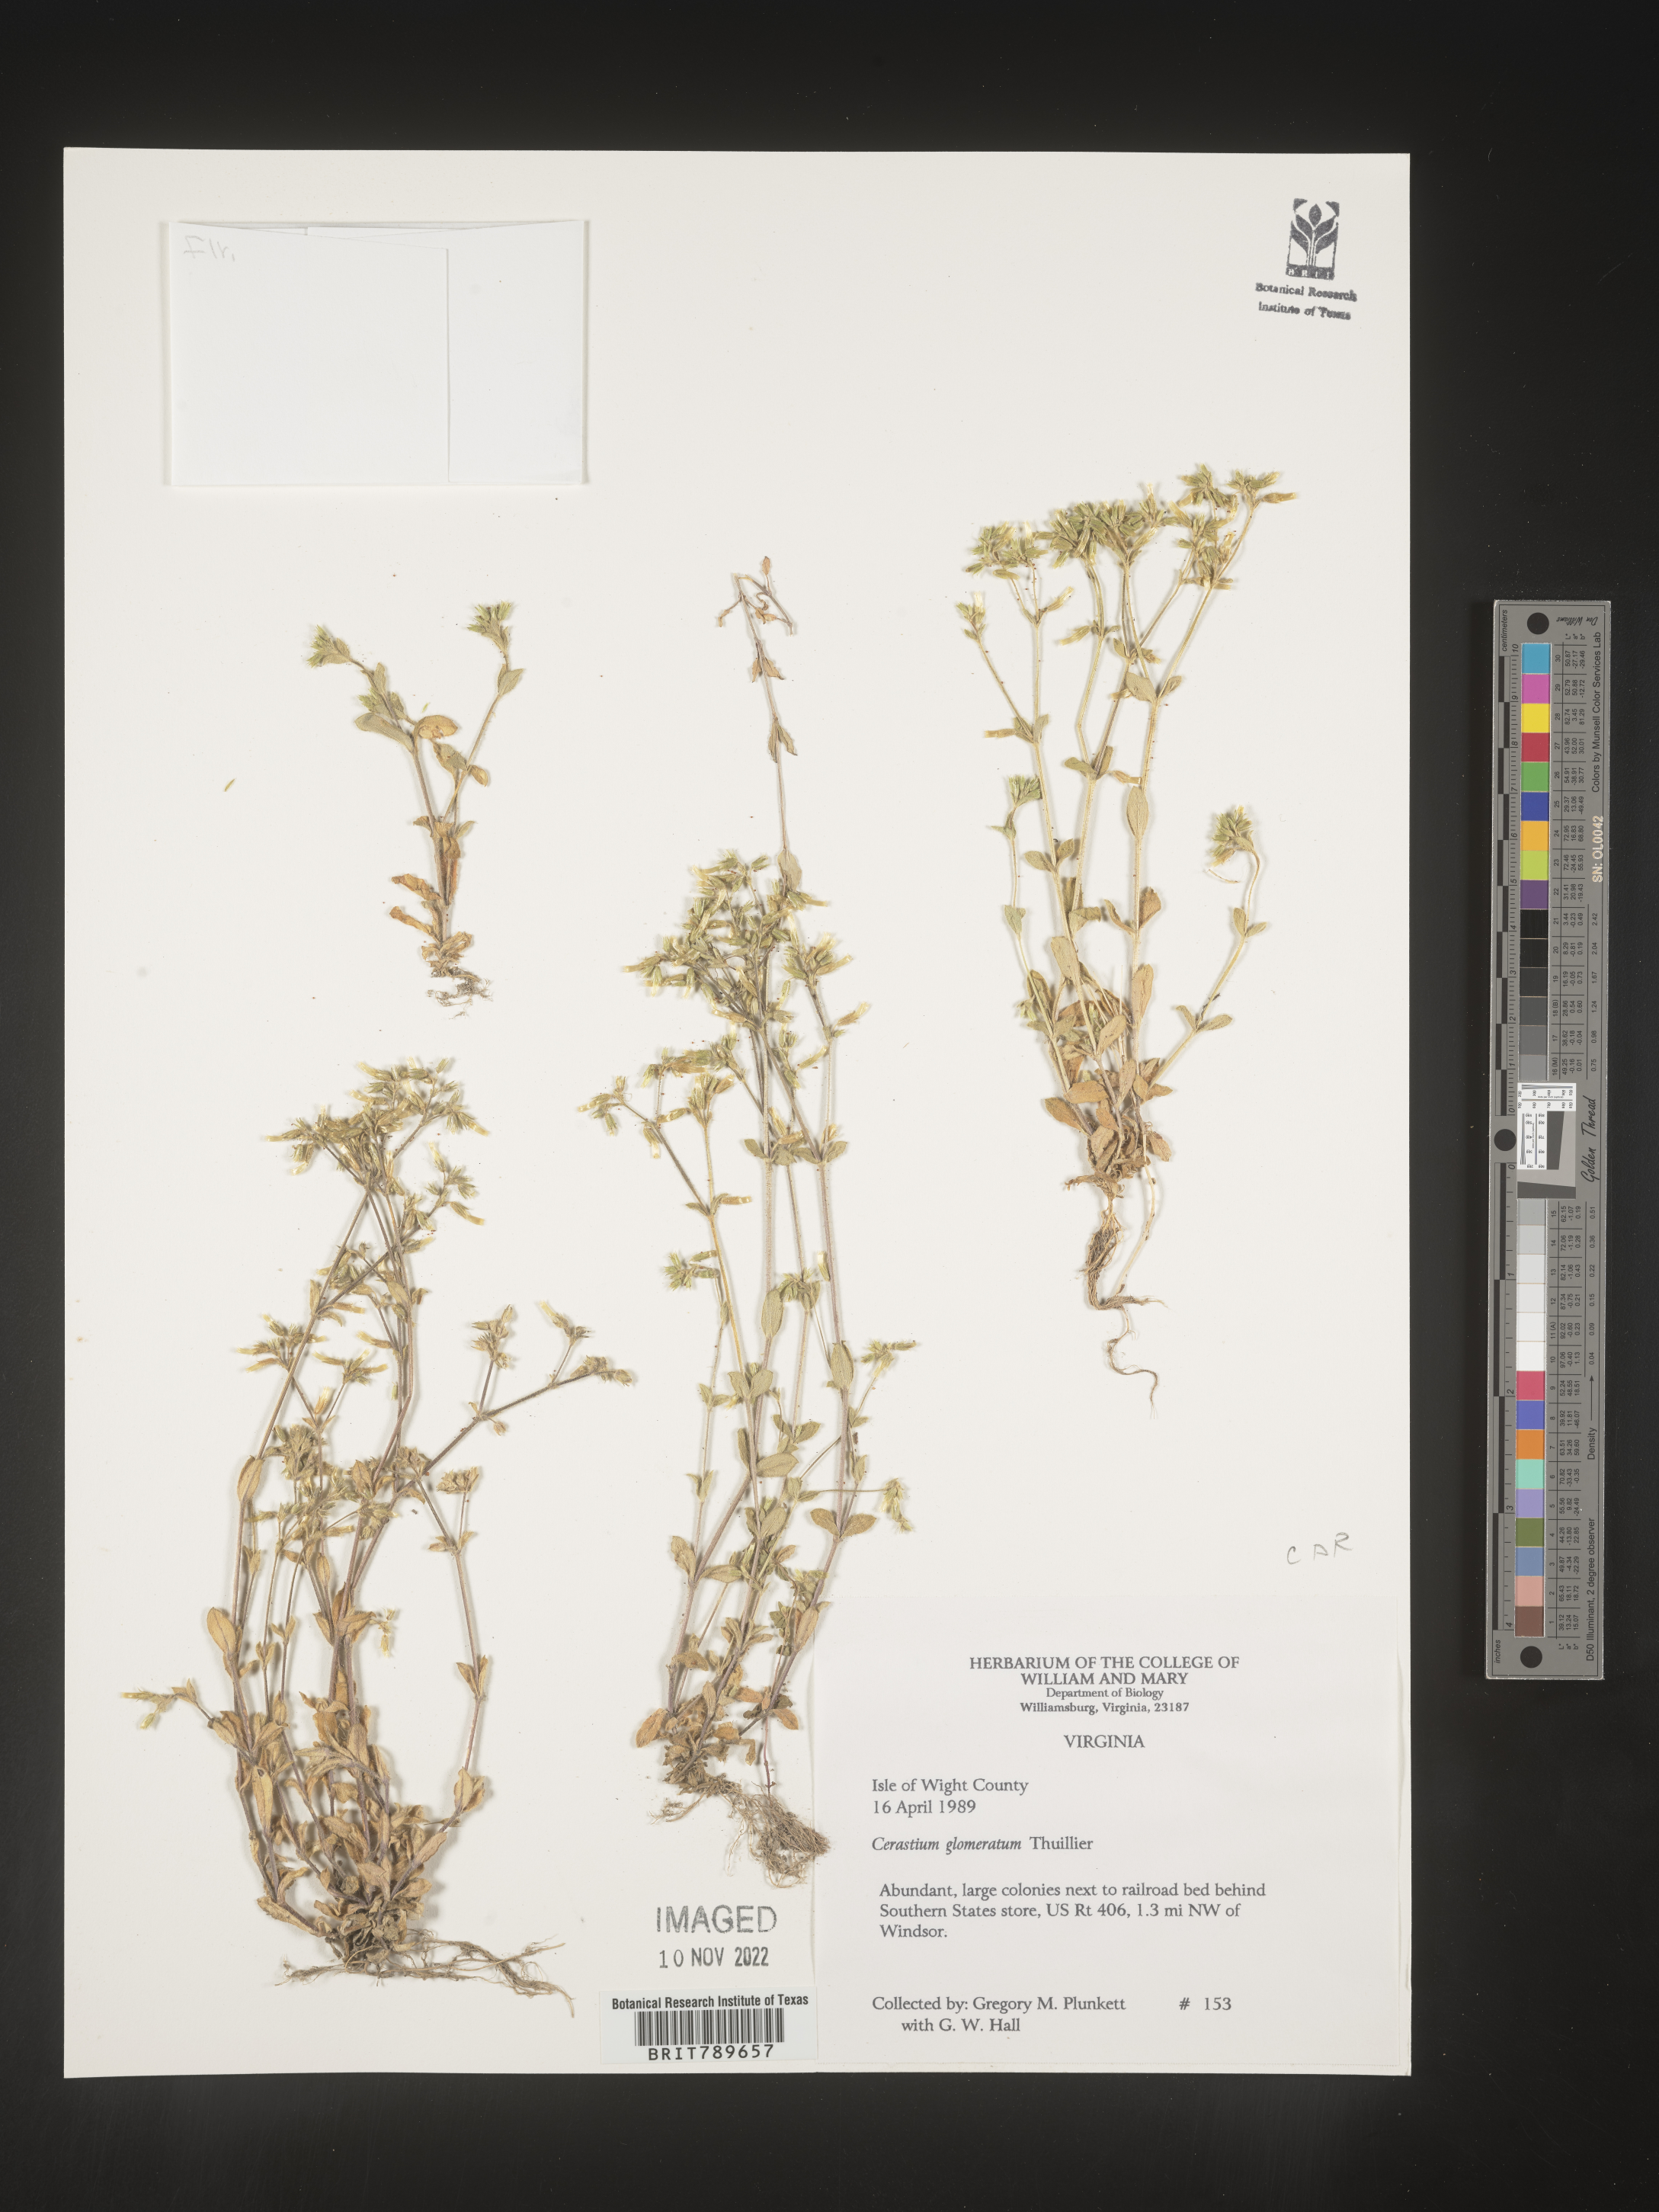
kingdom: Plantae
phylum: Tracheophyta
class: Magnoliopsida
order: Caryophyllales
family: Caryophyllaceae
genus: Cerastium
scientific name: Cerastium glomeratum
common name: Sticky chickweed
